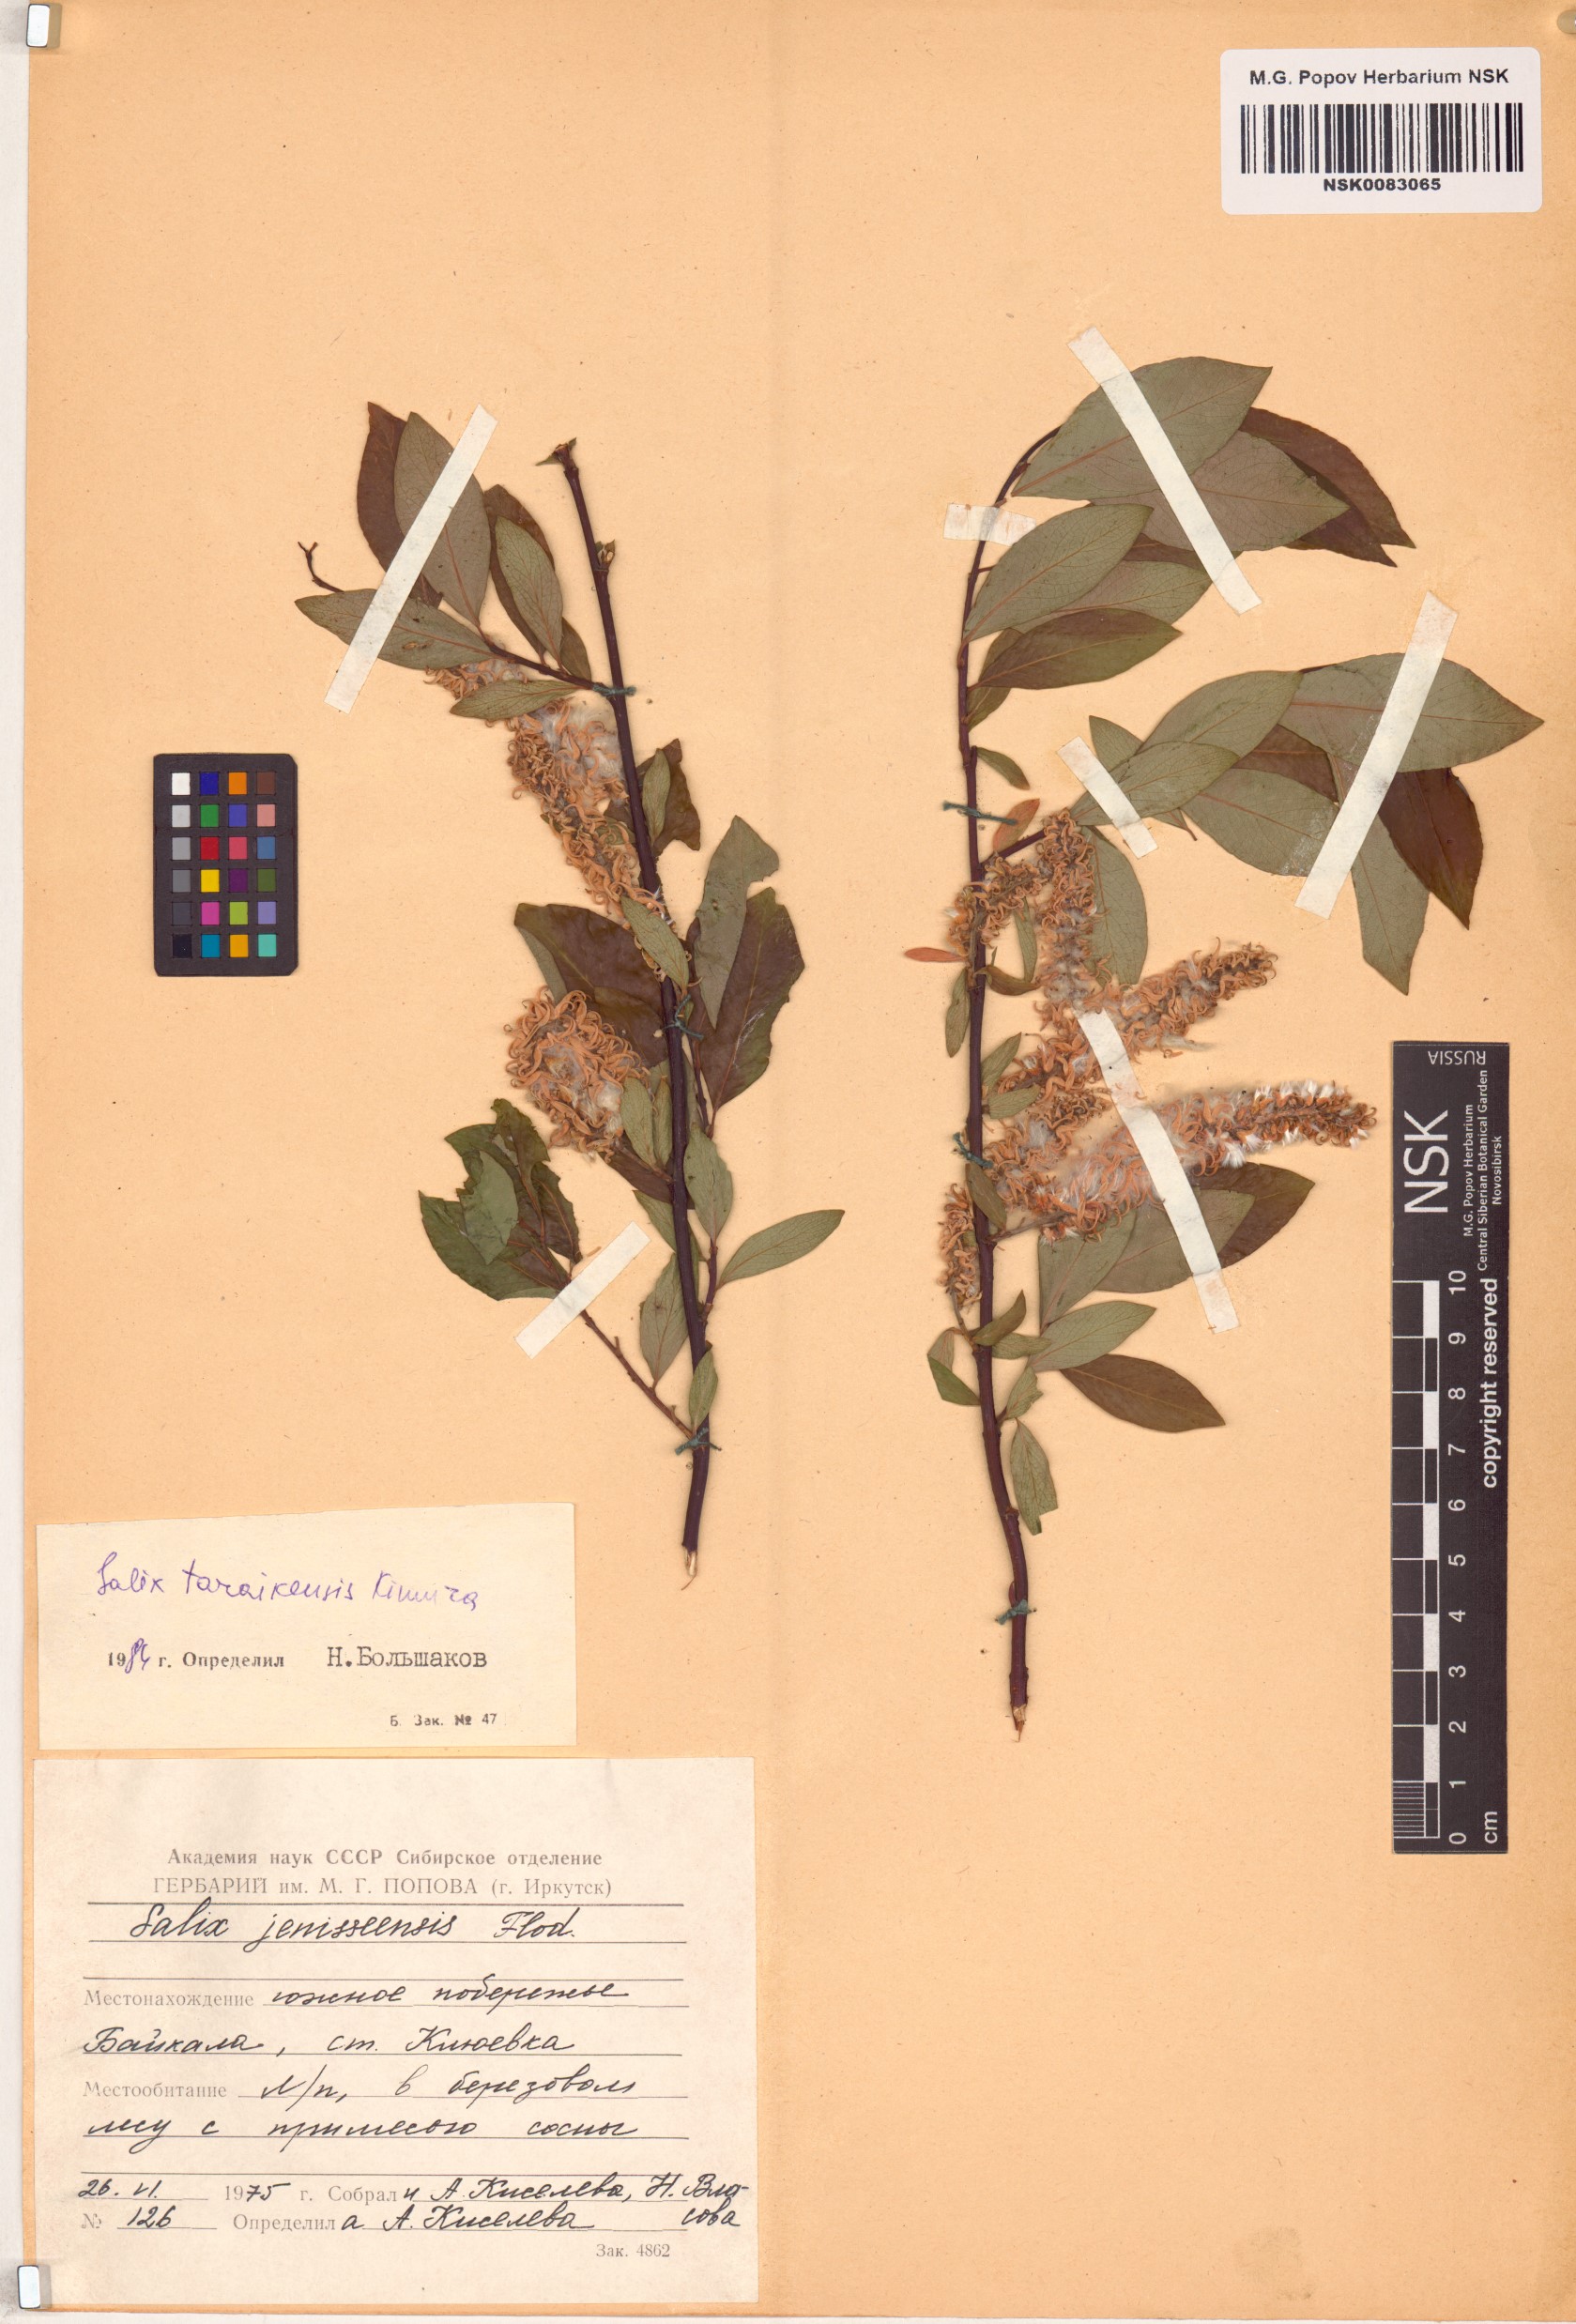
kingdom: Plantae
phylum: Tracheophyta
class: Magnoliopsida
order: Malpighiales
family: Salicaceae
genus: Salix
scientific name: Salix taraikensis
